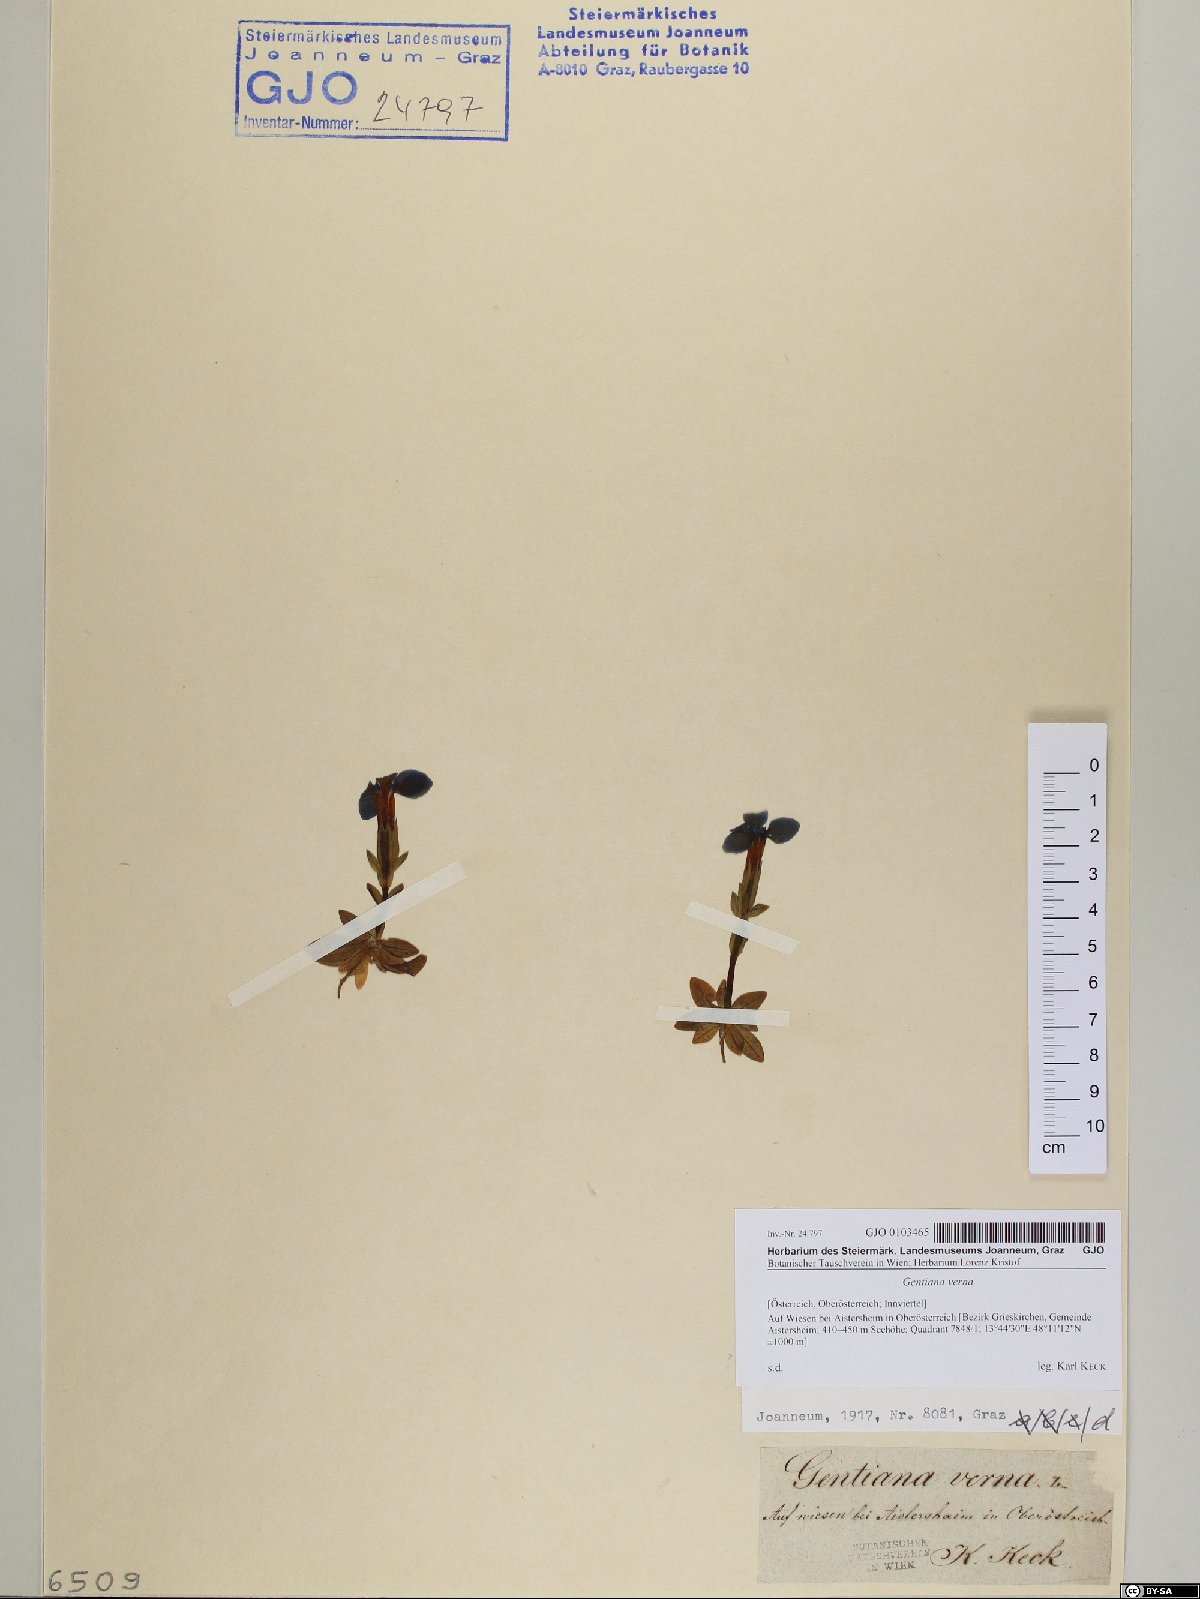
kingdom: Plantae
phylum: Tracheophyta
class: Magnoliopsida
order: Gentianales
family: Gentianaceae
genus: Gentiana
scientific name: Gentiana verna
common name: Spring gentian
